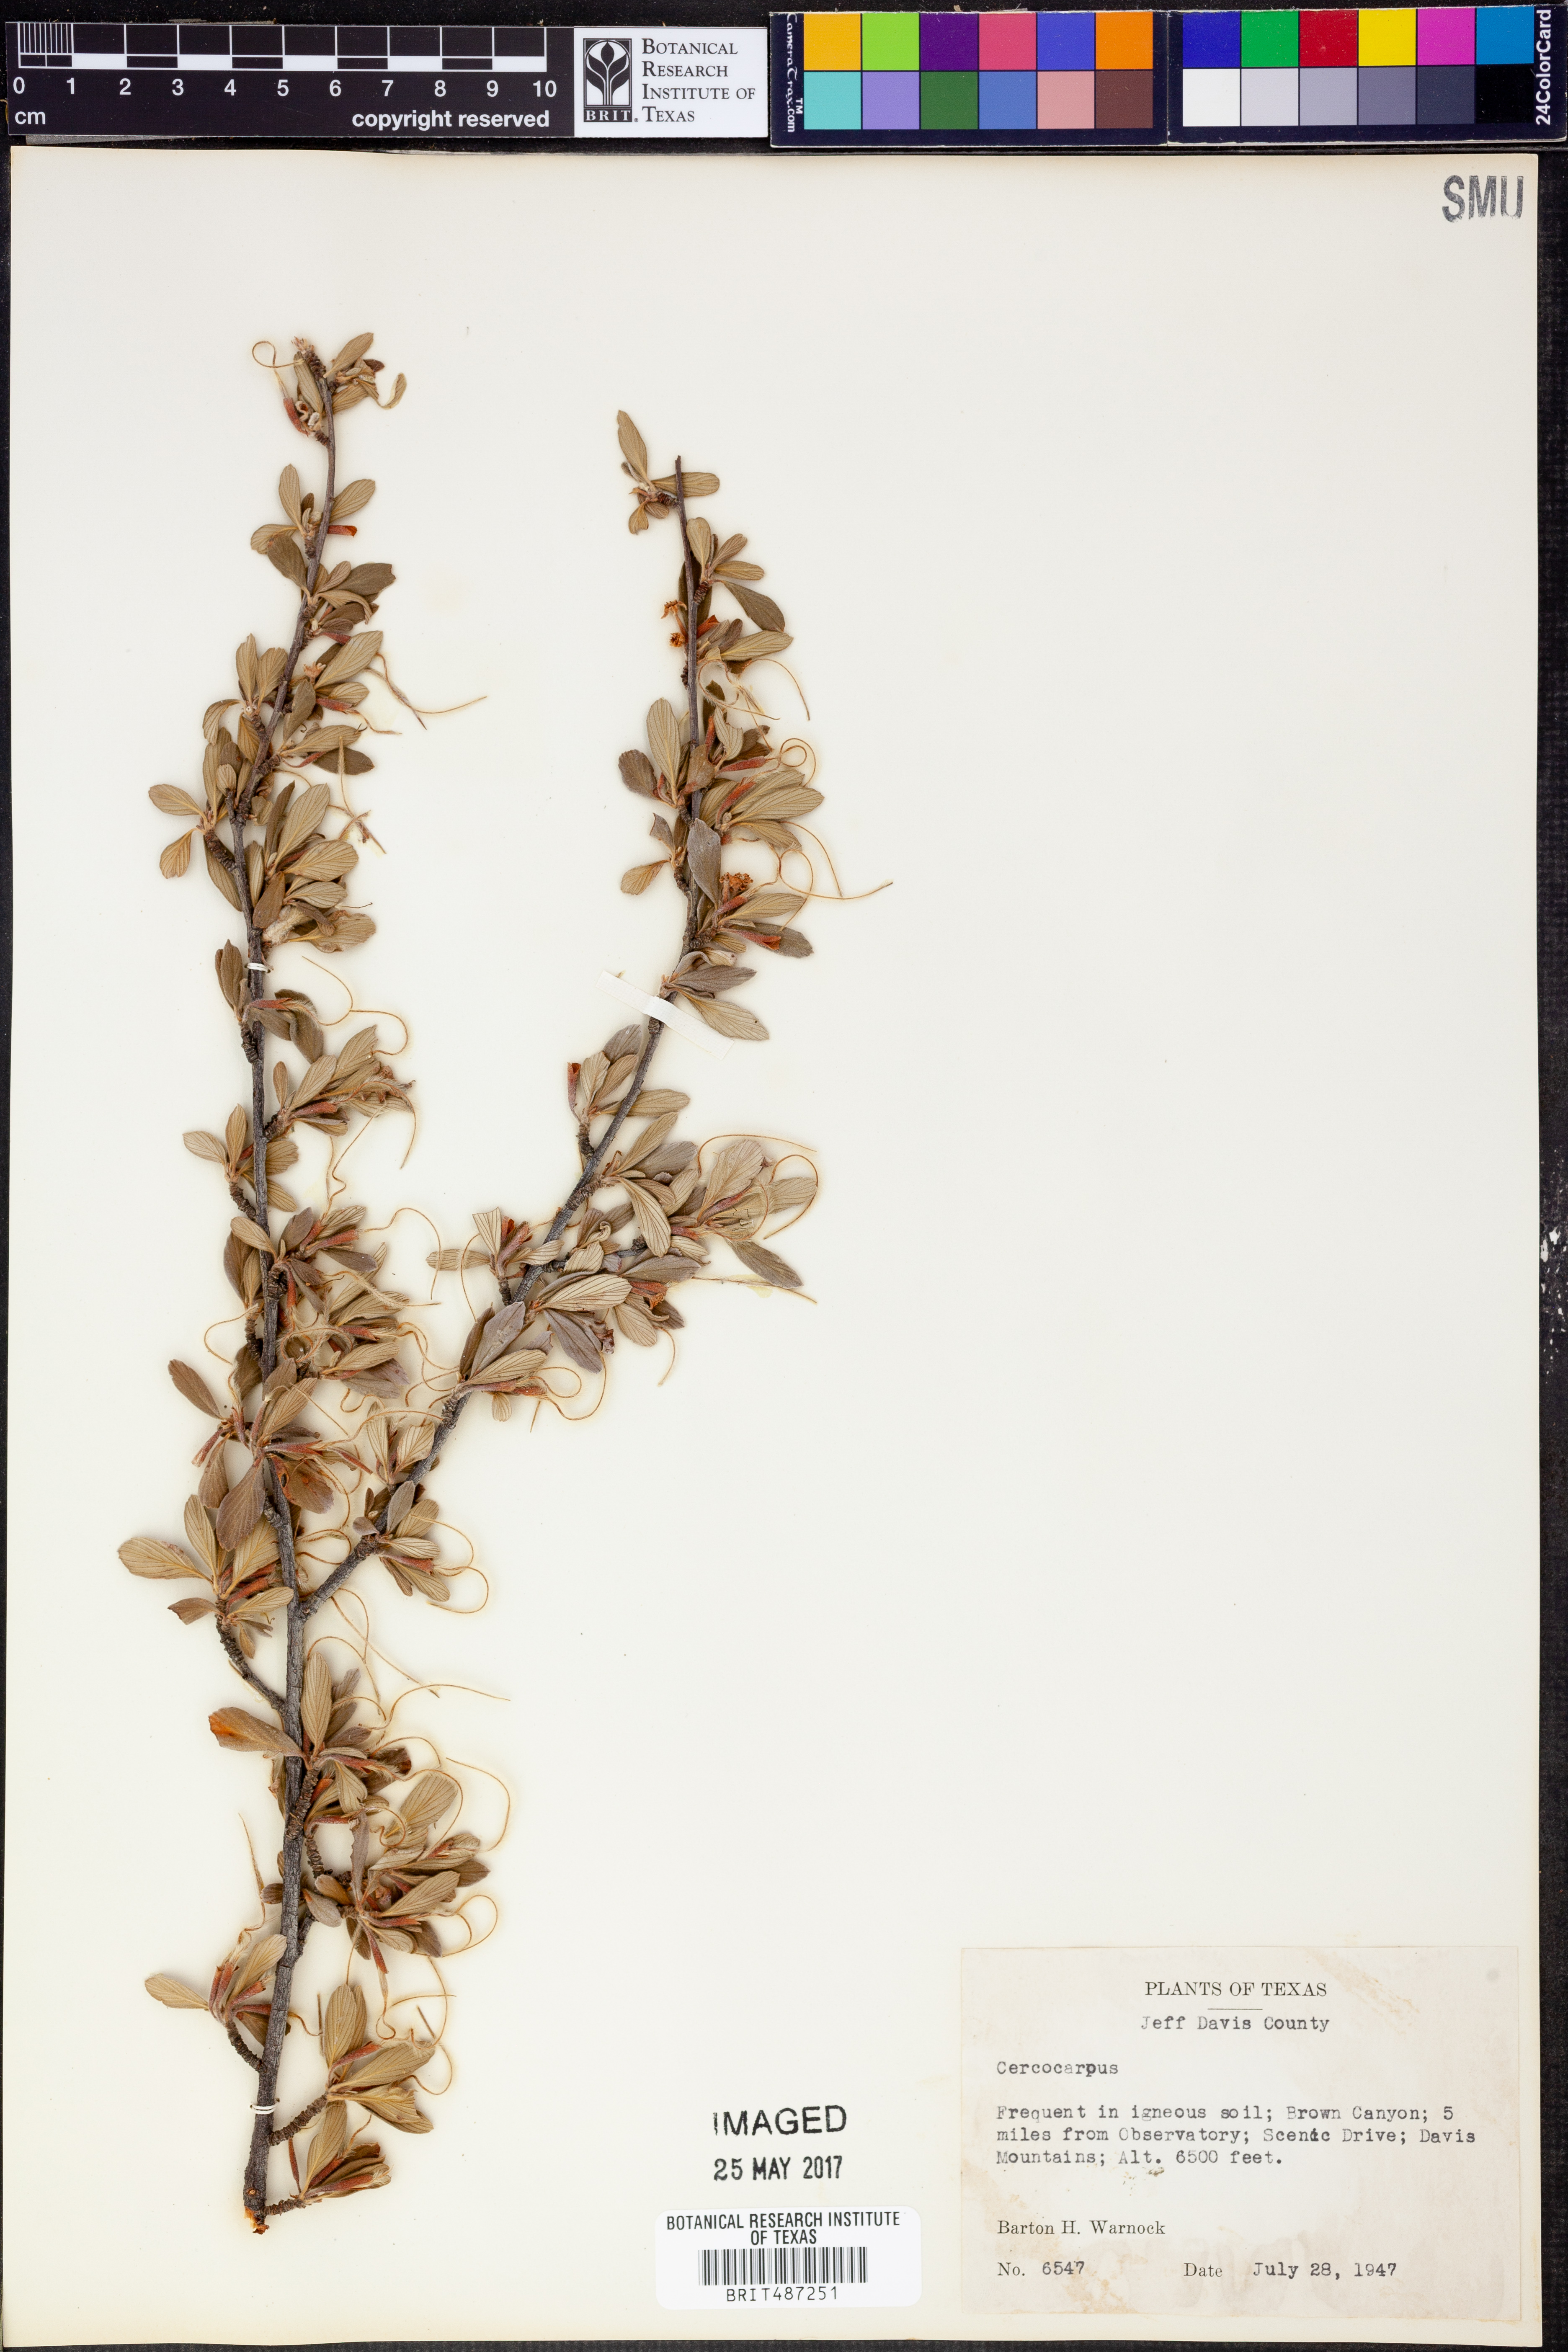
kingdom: Plantae
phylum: Tracheophyta
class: Magnoliopsida
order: Rosales
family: Rosaceae
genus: Cercocarpus
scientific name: Cercocarpus
